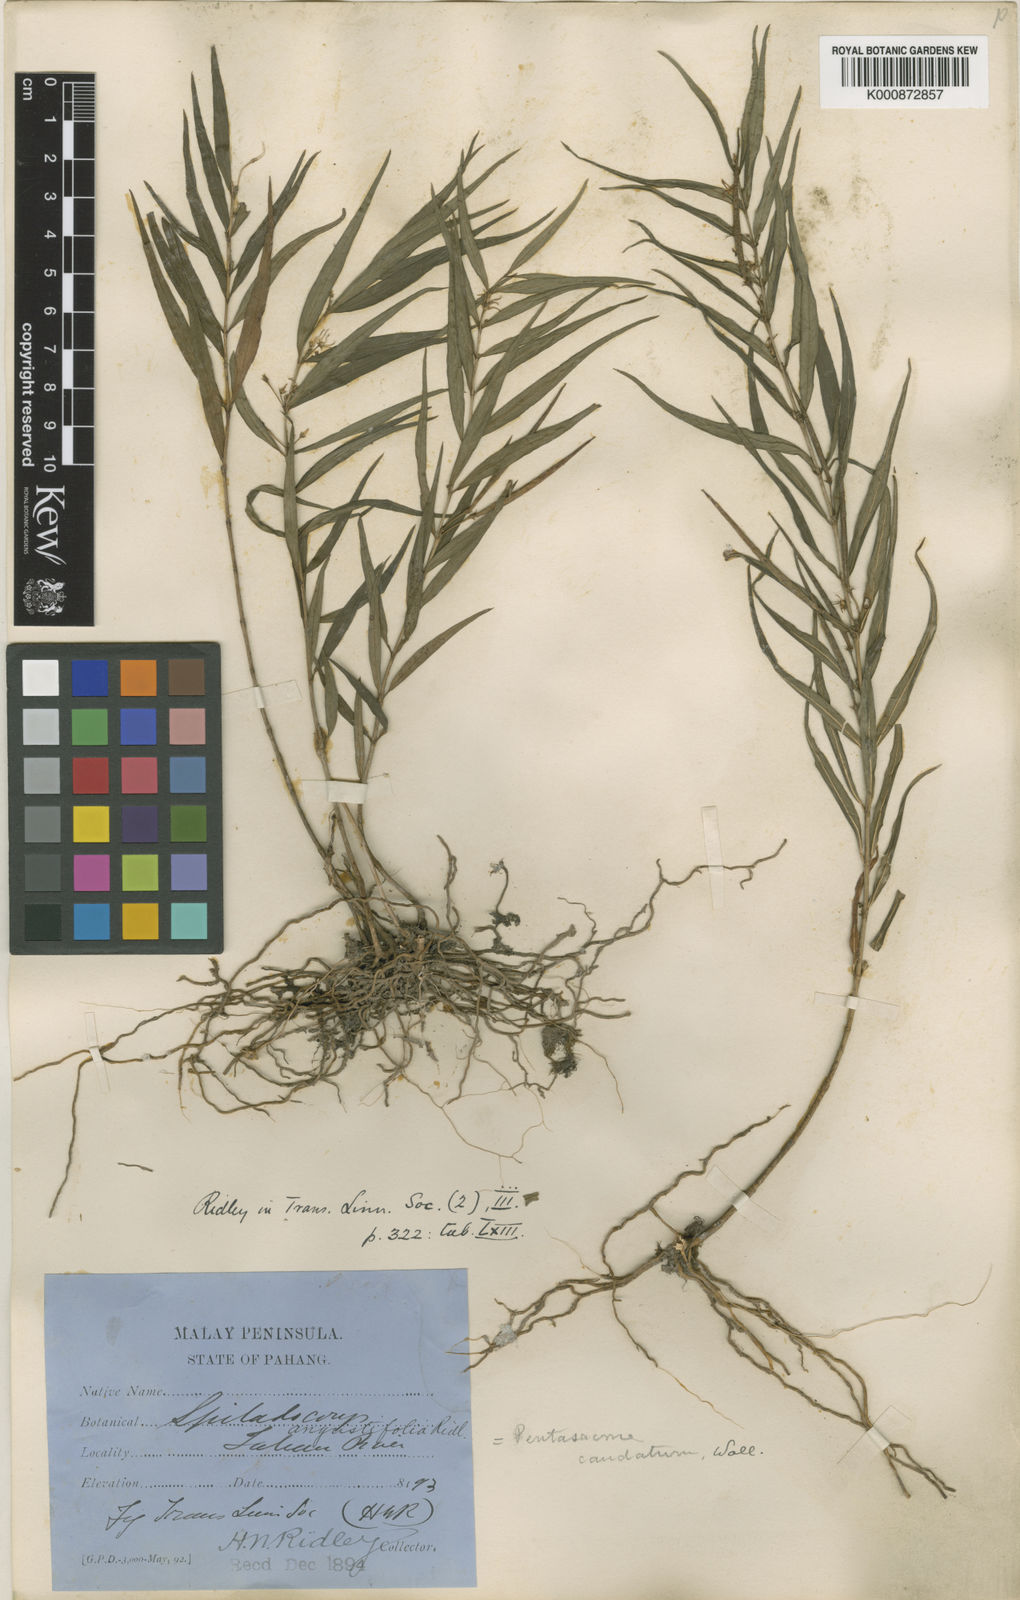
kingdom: Plantae
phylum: Tracheophyta
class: Magnoliopsida
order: Gentianales
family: Apocynaceae
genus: Pentasachme
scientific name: Pentasachme caudatum
